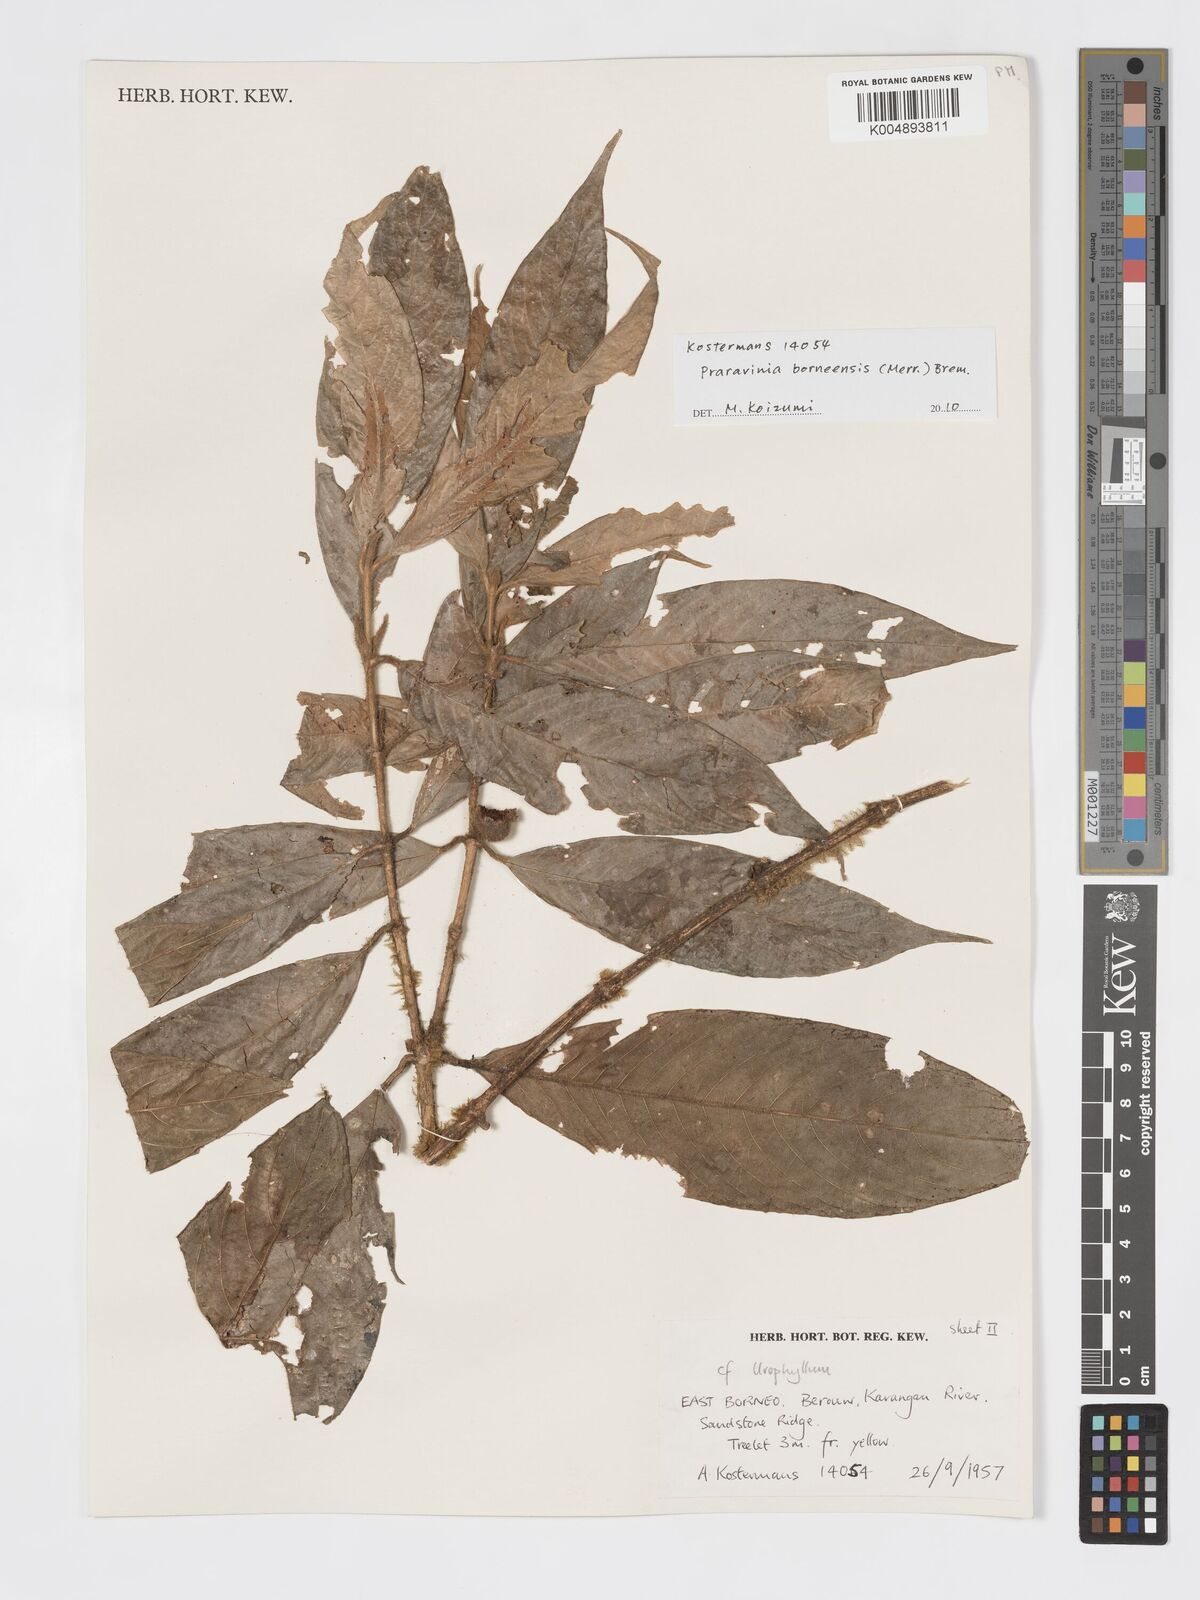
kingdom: Plantae
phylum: Tracheophyta
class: Magnoliopsida
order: Gentianales
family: Rubiaceae
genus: Praravinia
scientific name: Praravinia borneensis
